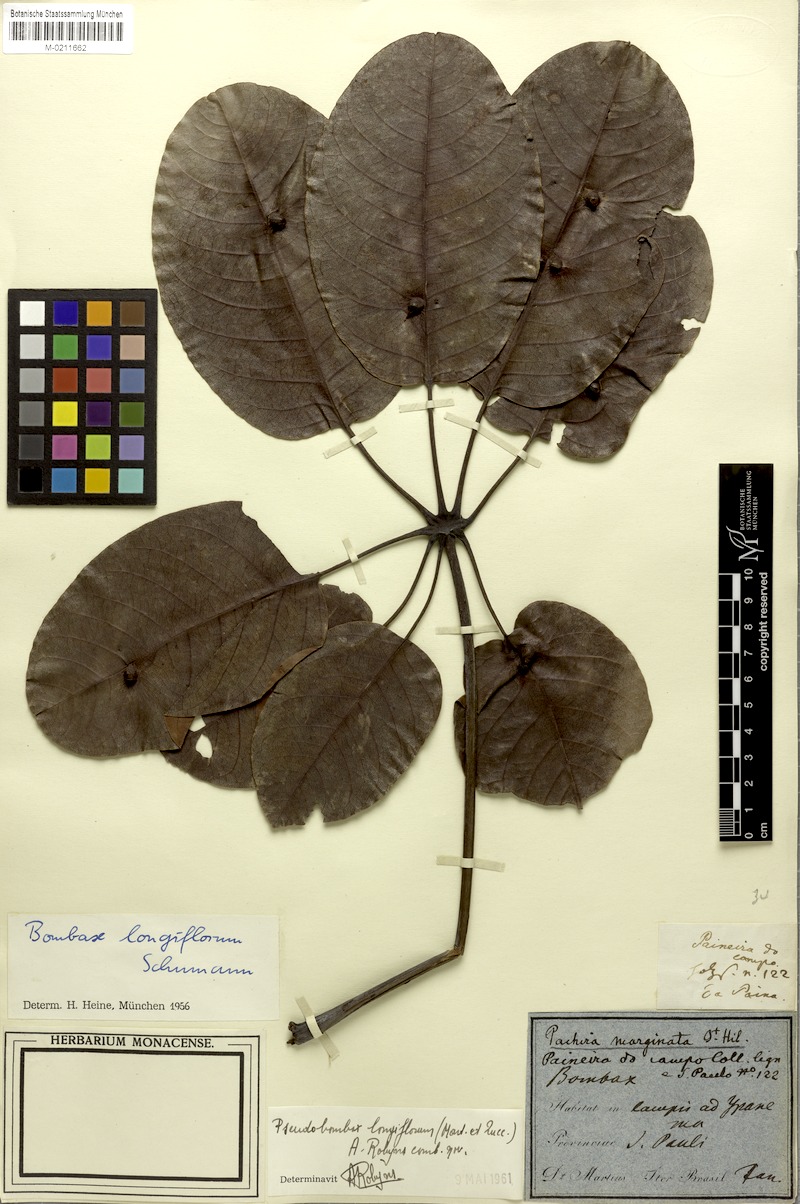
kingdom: Plantae
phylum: Tracheophyta
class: Magnoliopsida
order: Malvales
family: Malvaceae
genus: Pseudobombax
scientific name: Pseudobombax longiflorum
